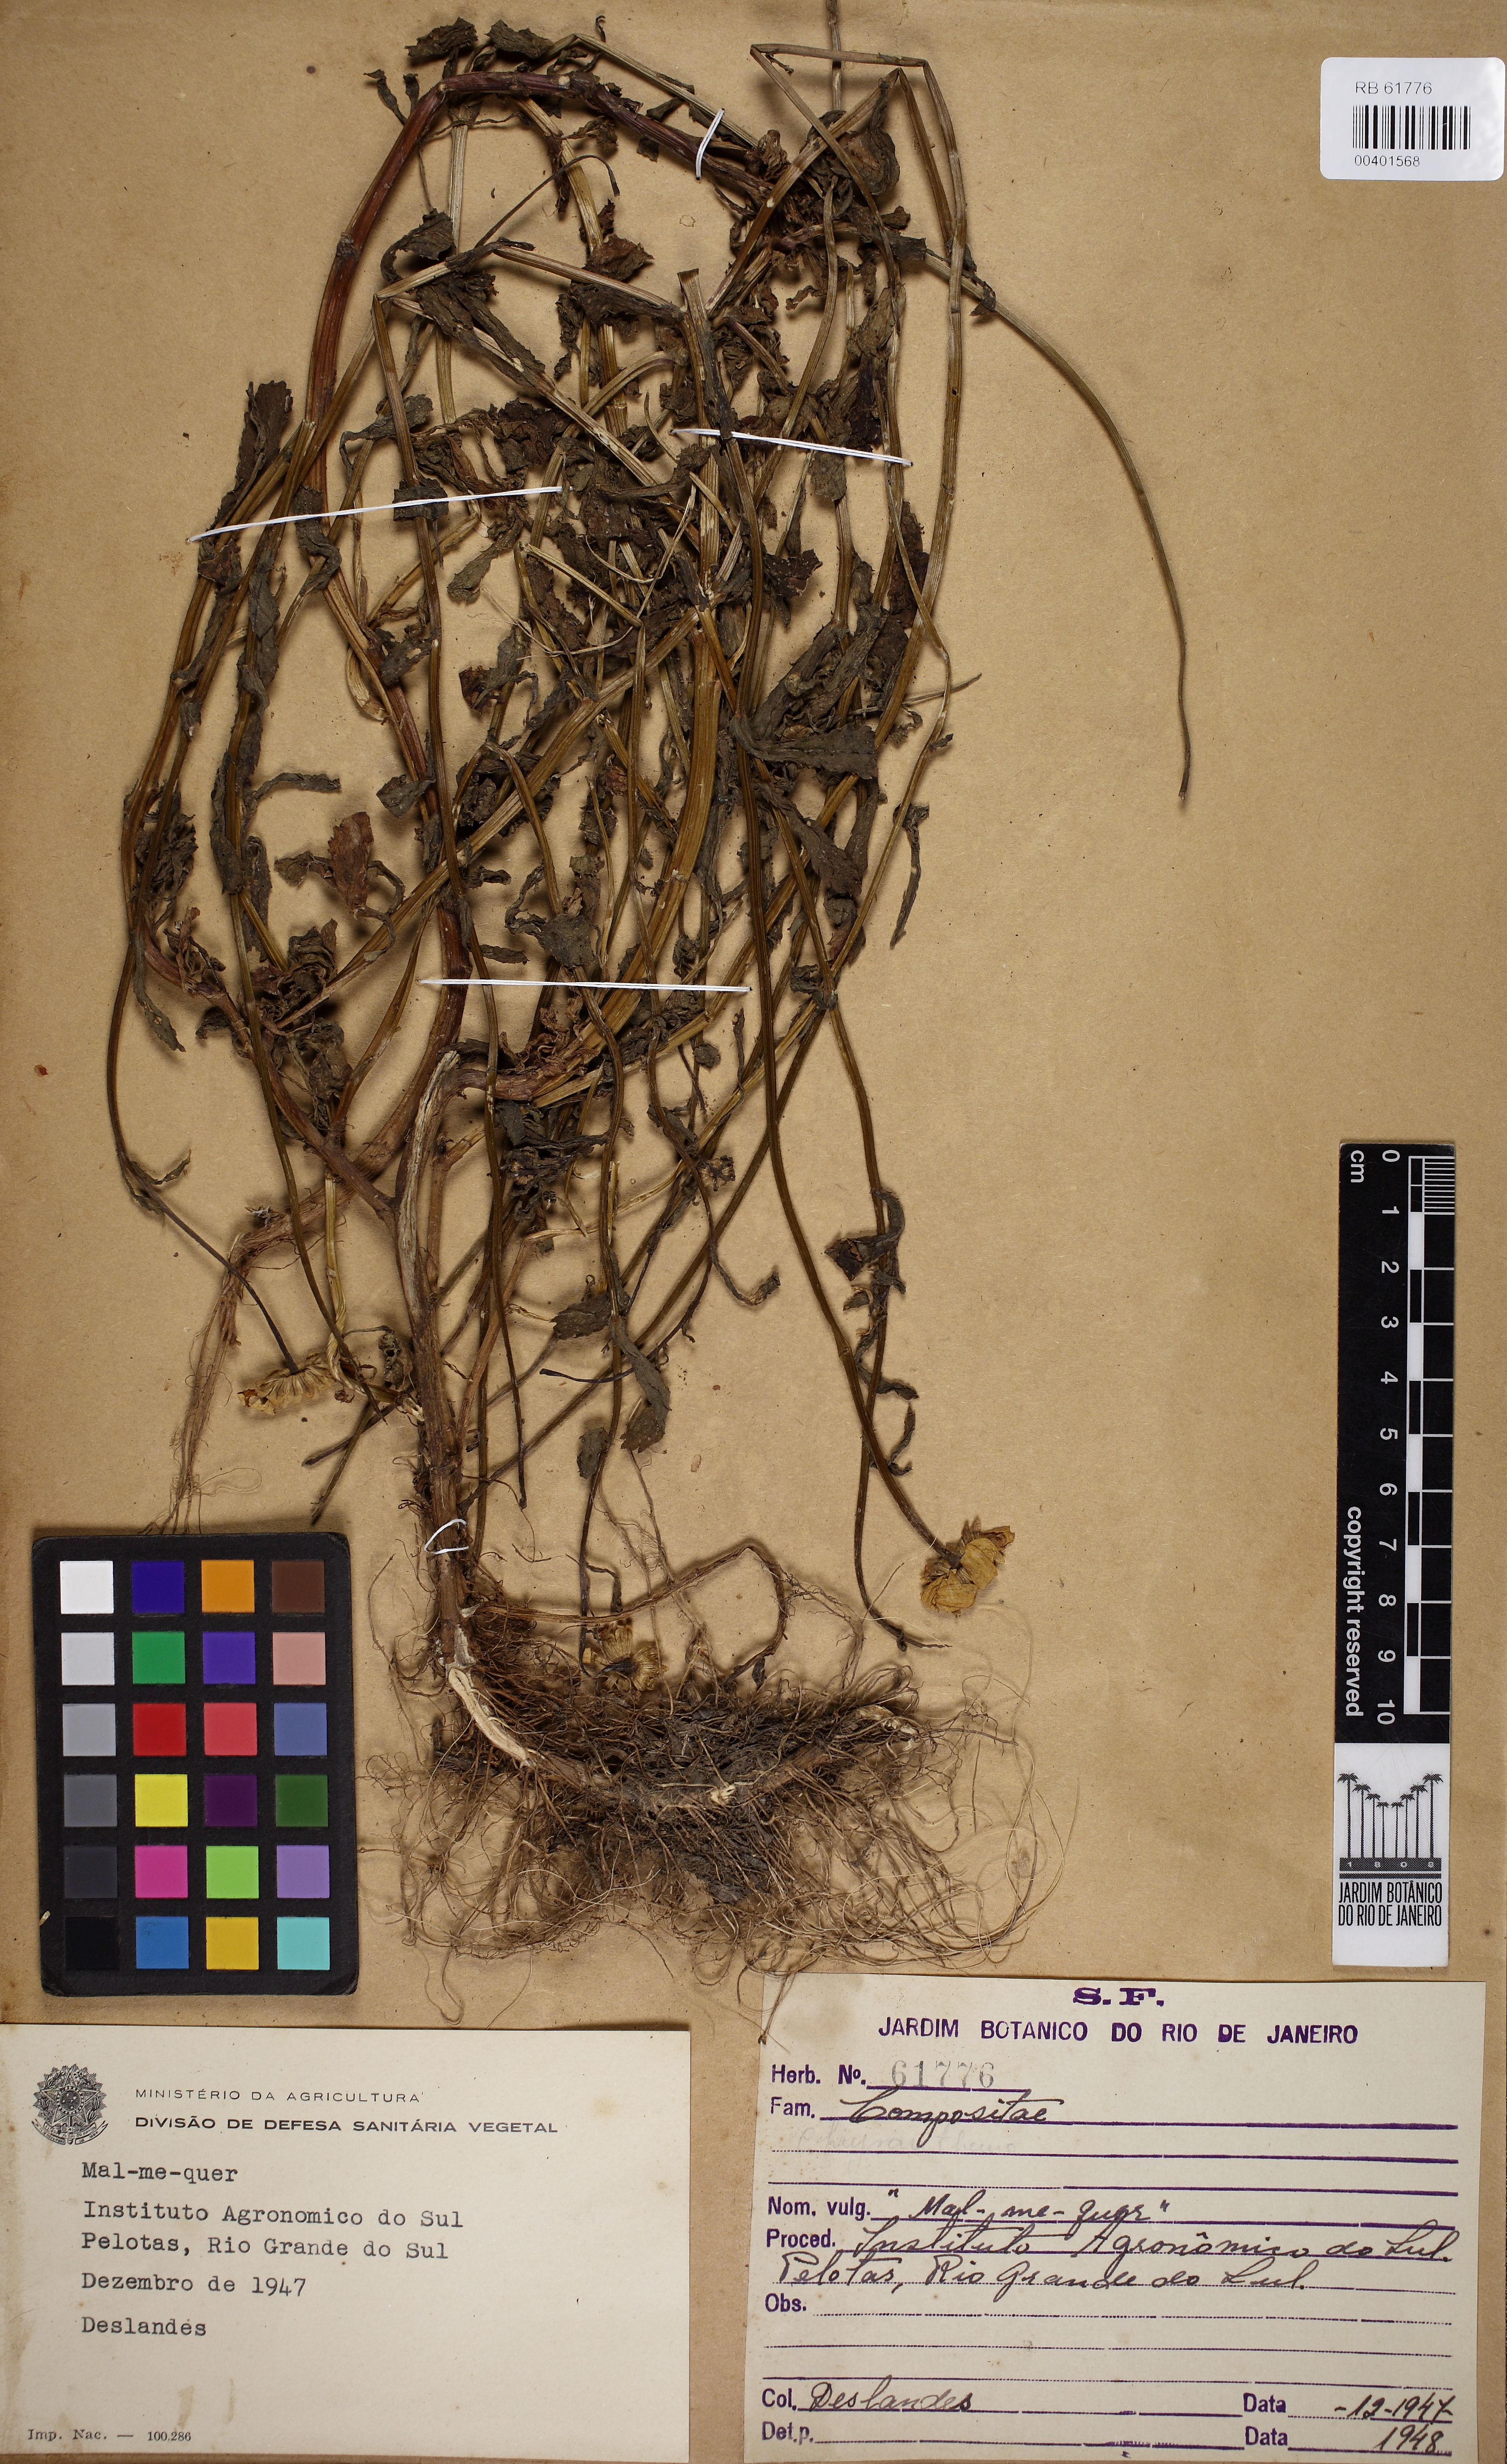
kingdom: Plantae
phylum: Tracheophyta
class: Magnoliopsida
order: Asterales
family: Asteraceae
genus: Chrysanthemum
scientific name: Chrysanthemum
